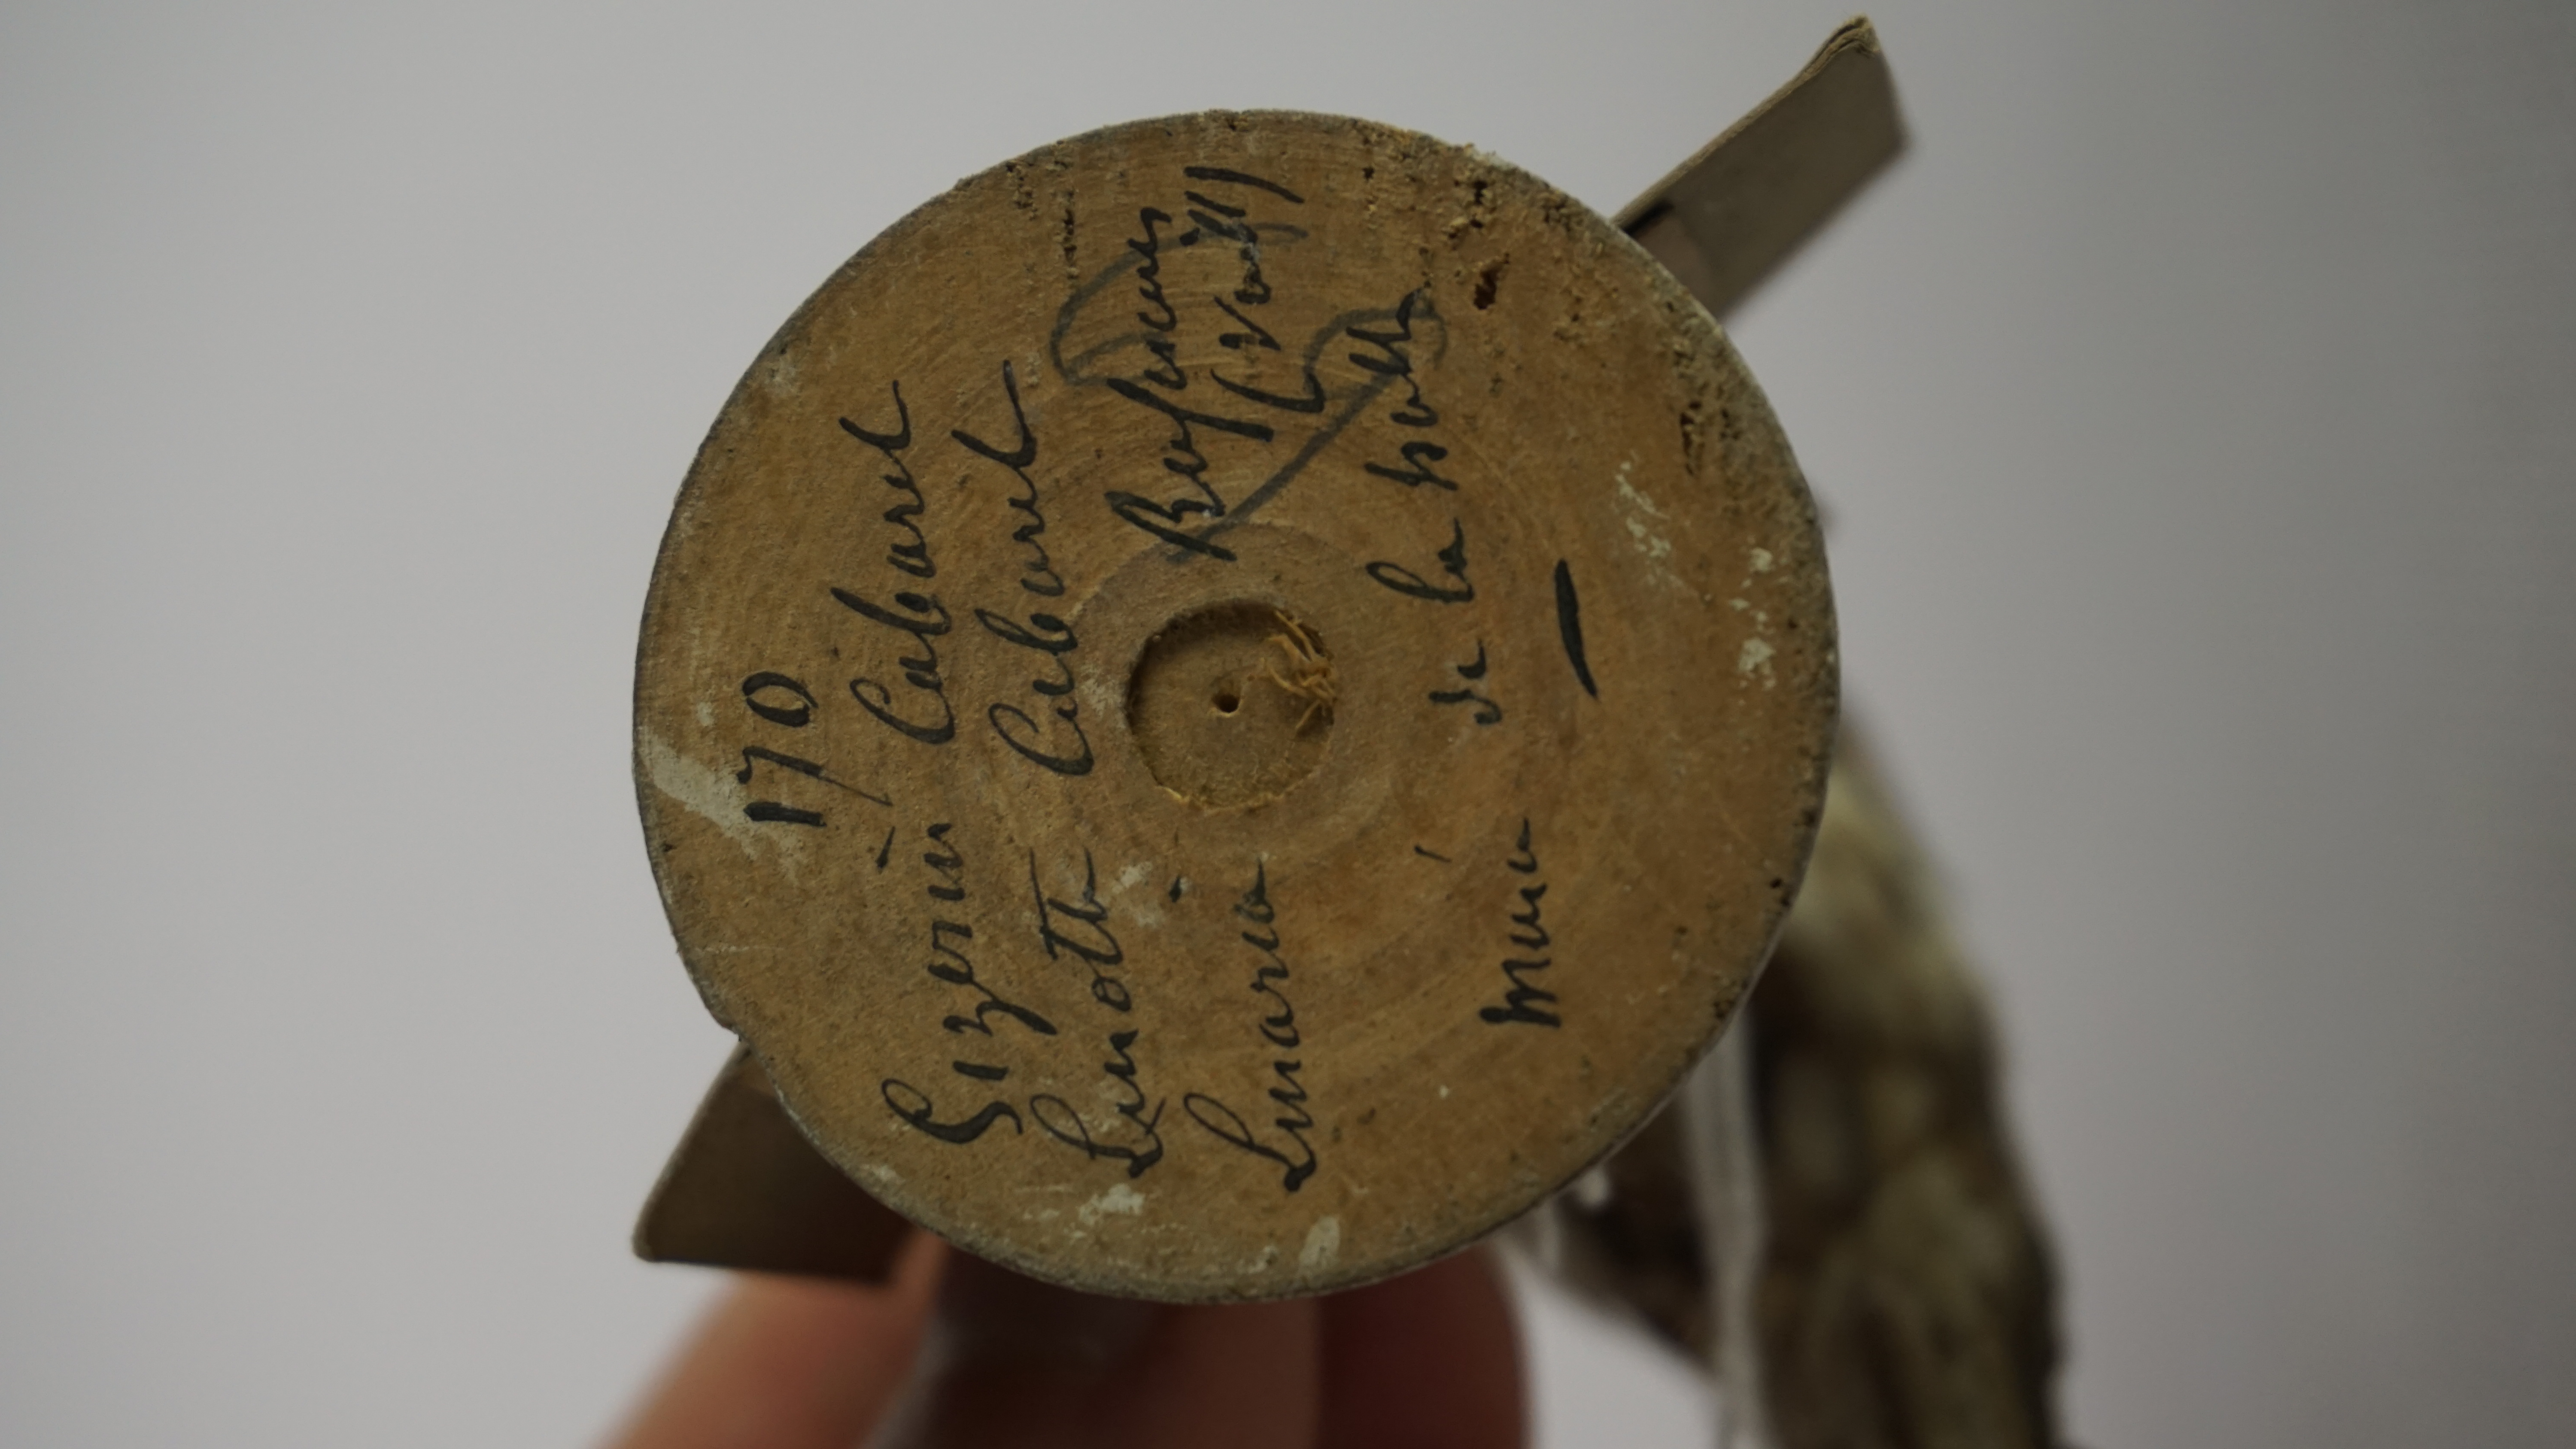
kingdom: Animalia
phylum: Chordata
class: Aves
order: Passeriformes
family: Fringillidae
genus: Acanthis
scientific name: Acanthis flammea
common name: Common redpoll
